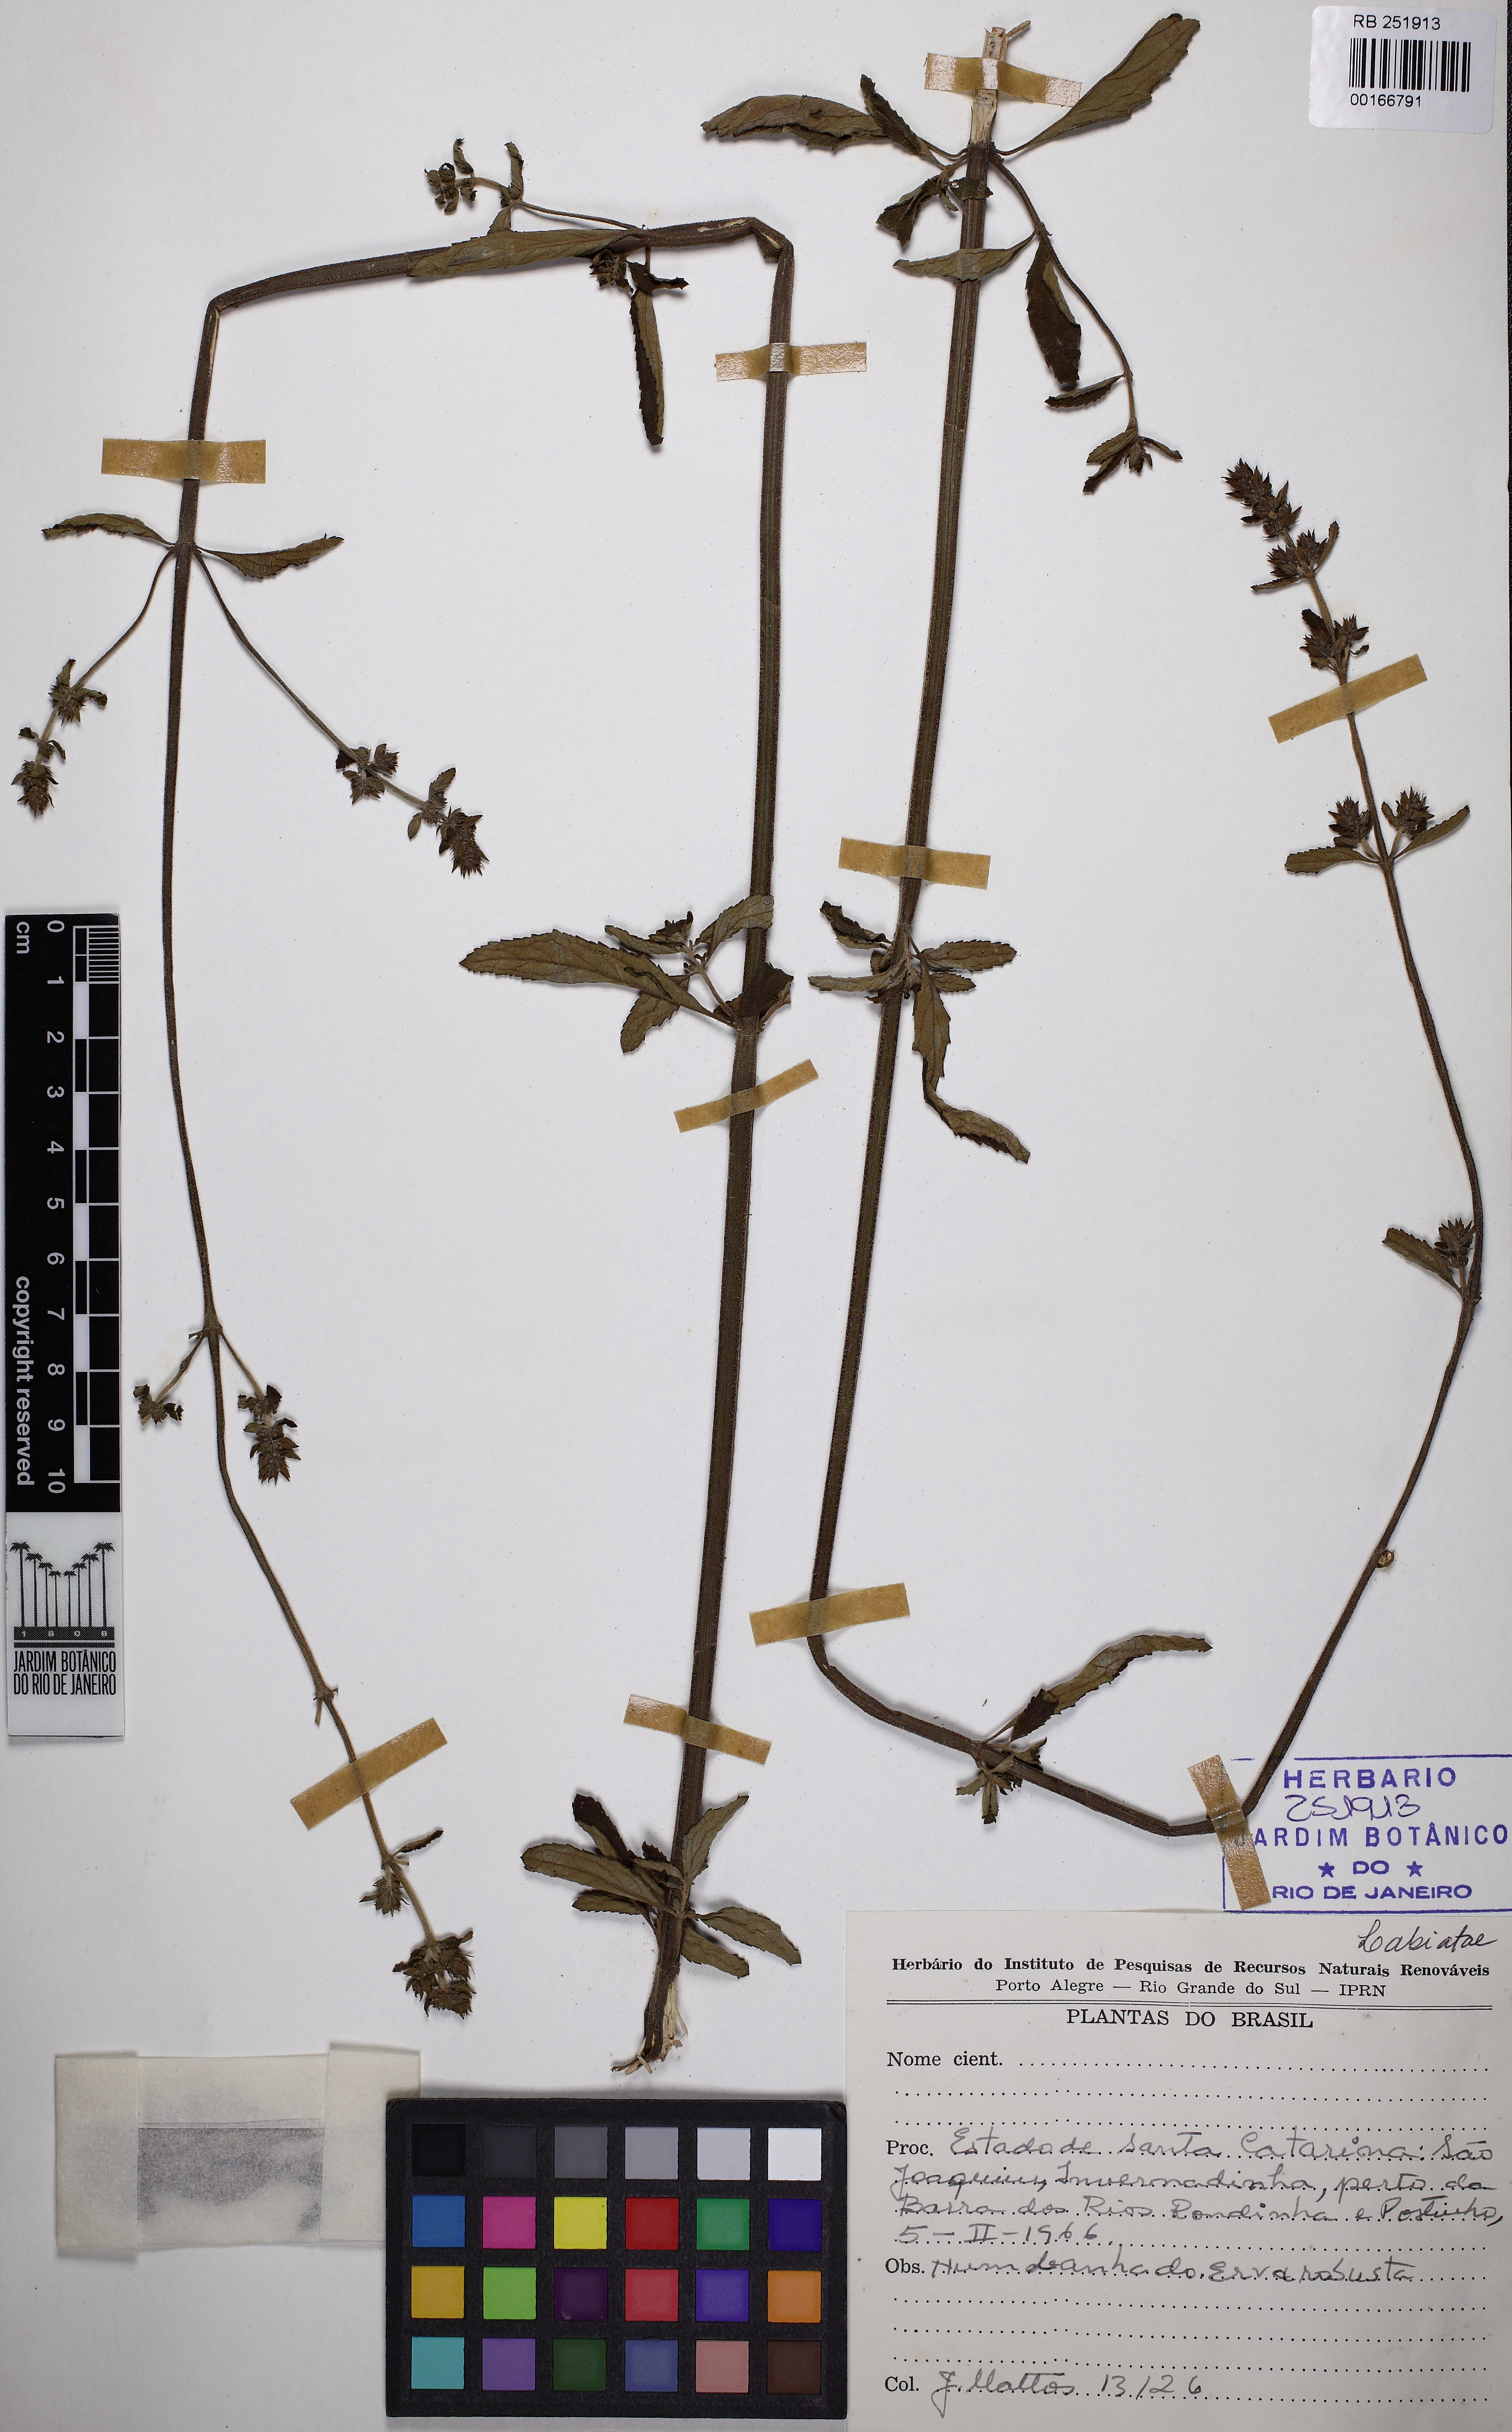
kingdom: Plantae
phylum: Tracheophyta
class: Magnoliopsida
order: Lamiales
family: Lamiaceae
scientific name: Lamiaceae
